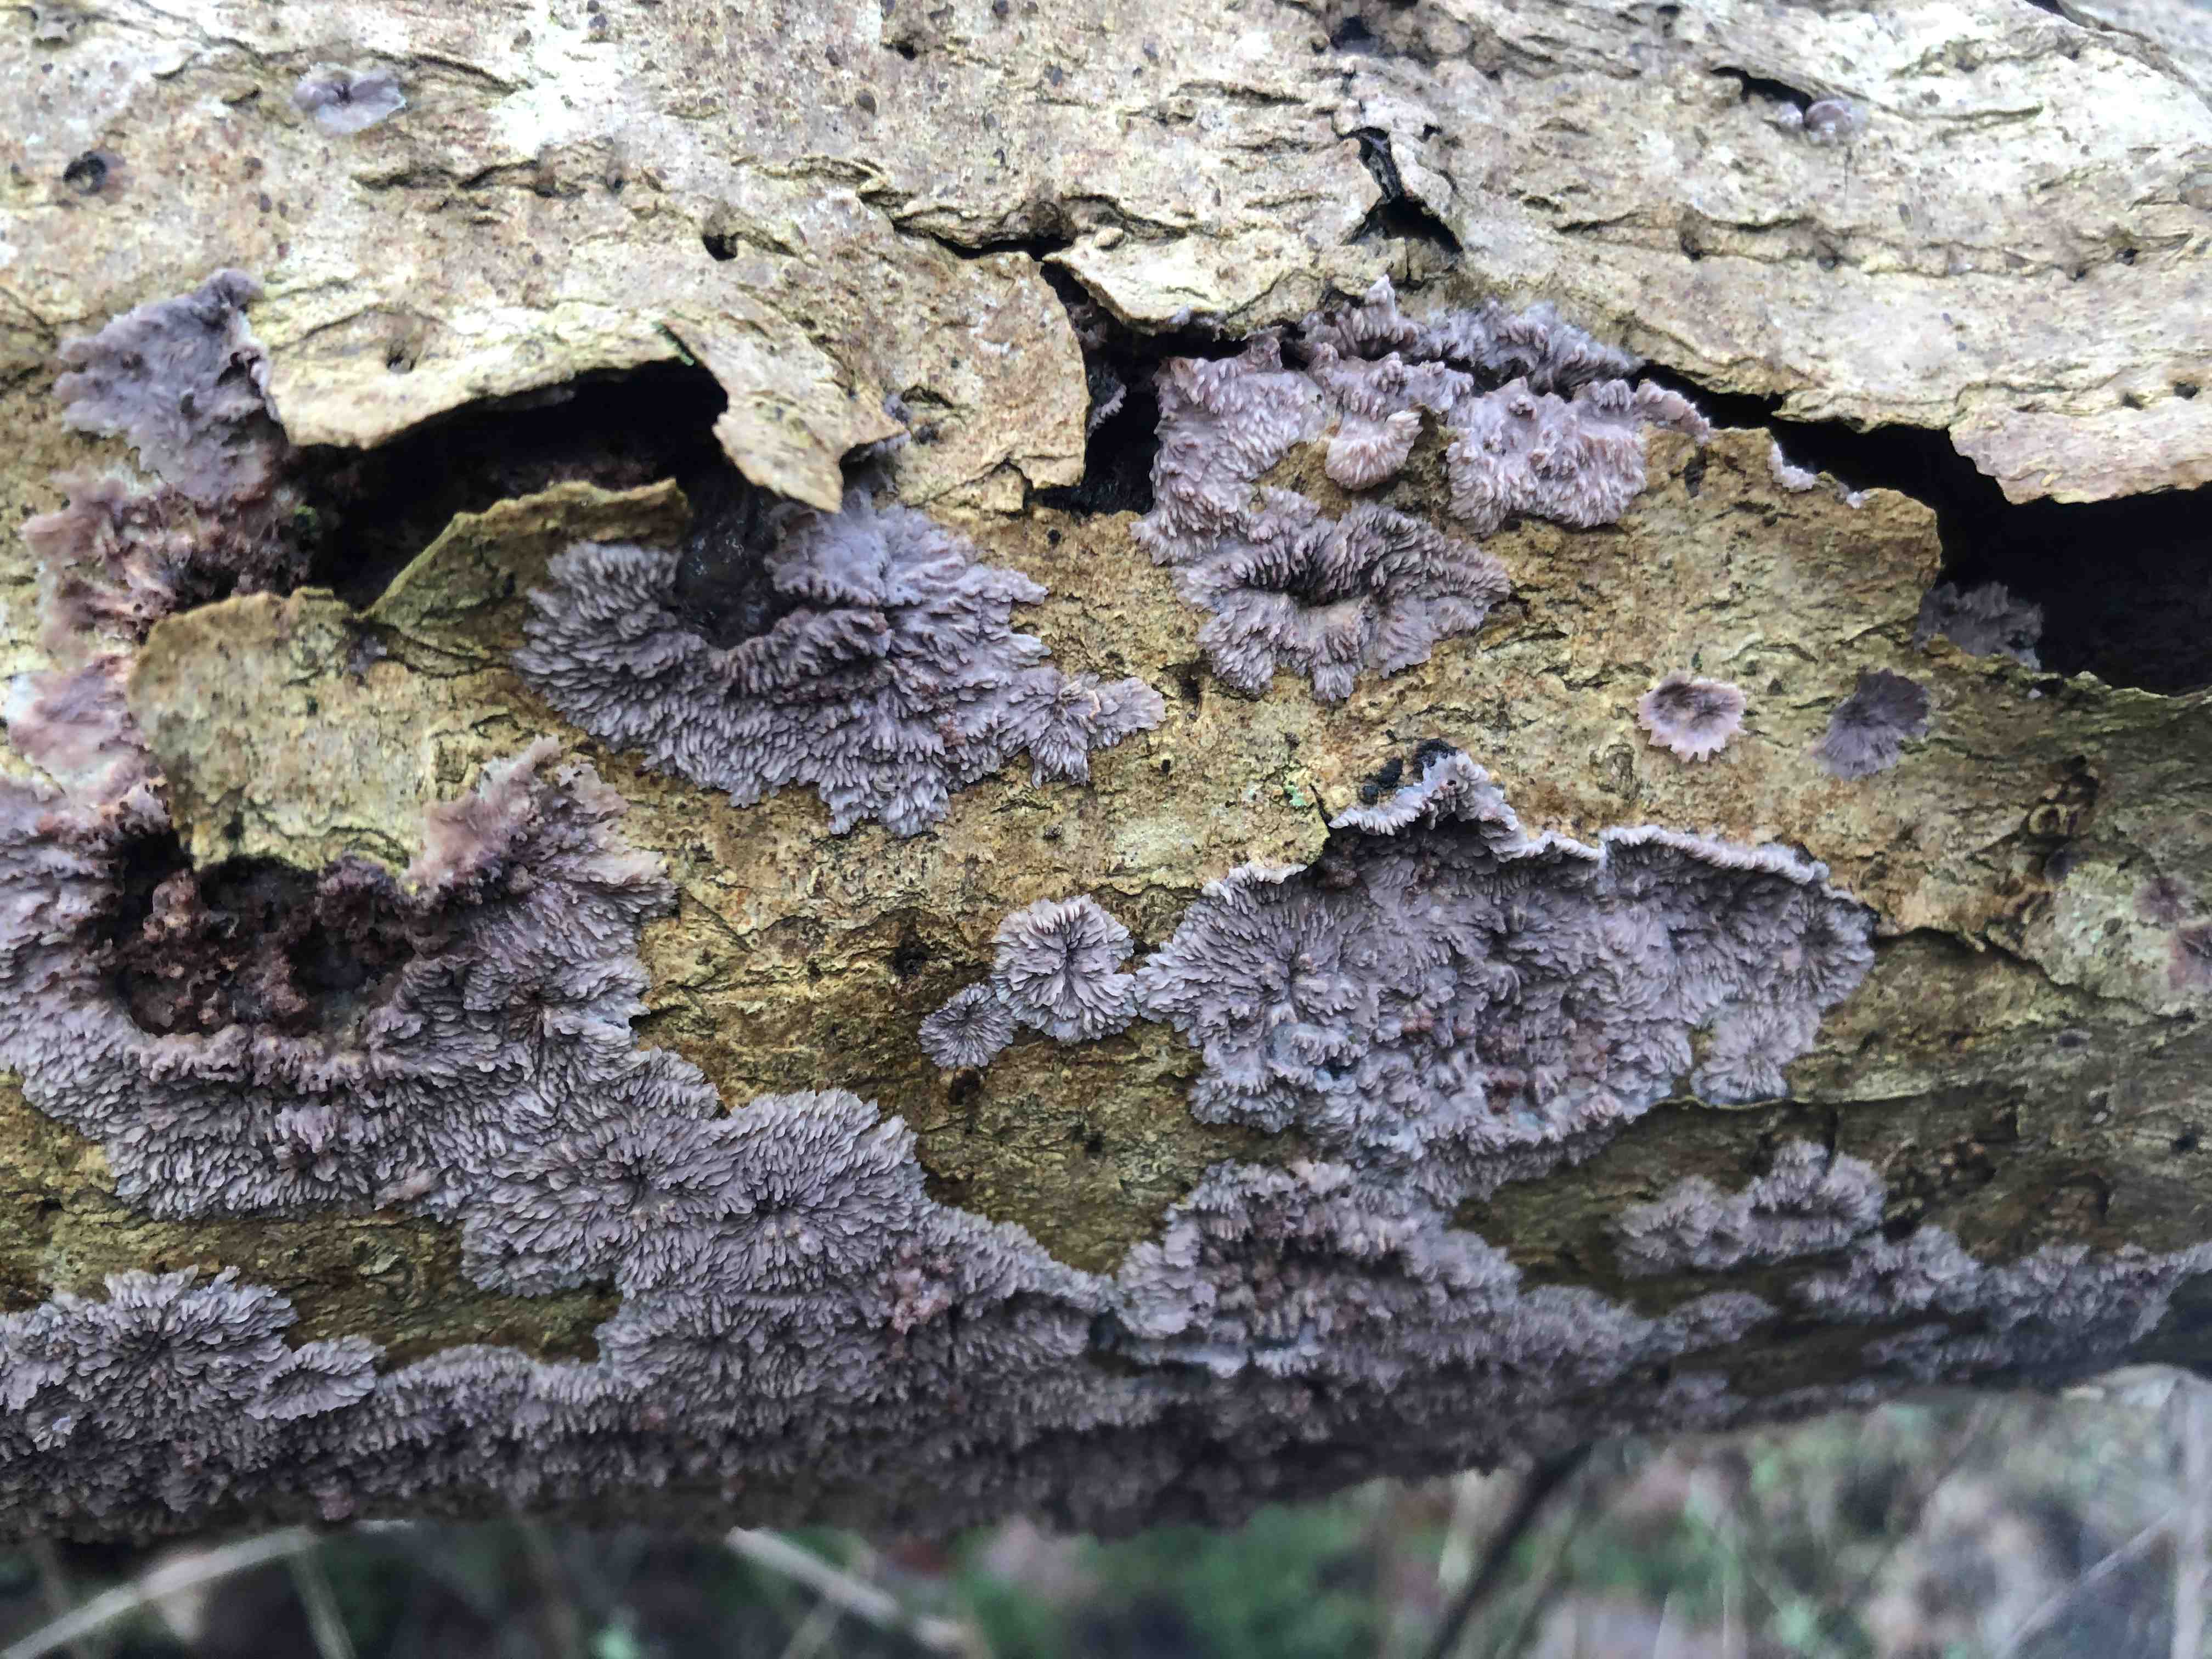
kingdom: Fungi
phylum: Basidiomycota
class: Agaricomycetes
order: Polyporales
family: Meruliaceae
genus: Phlebia
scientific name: Phlebia radiata
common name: stråle-åresvamp
